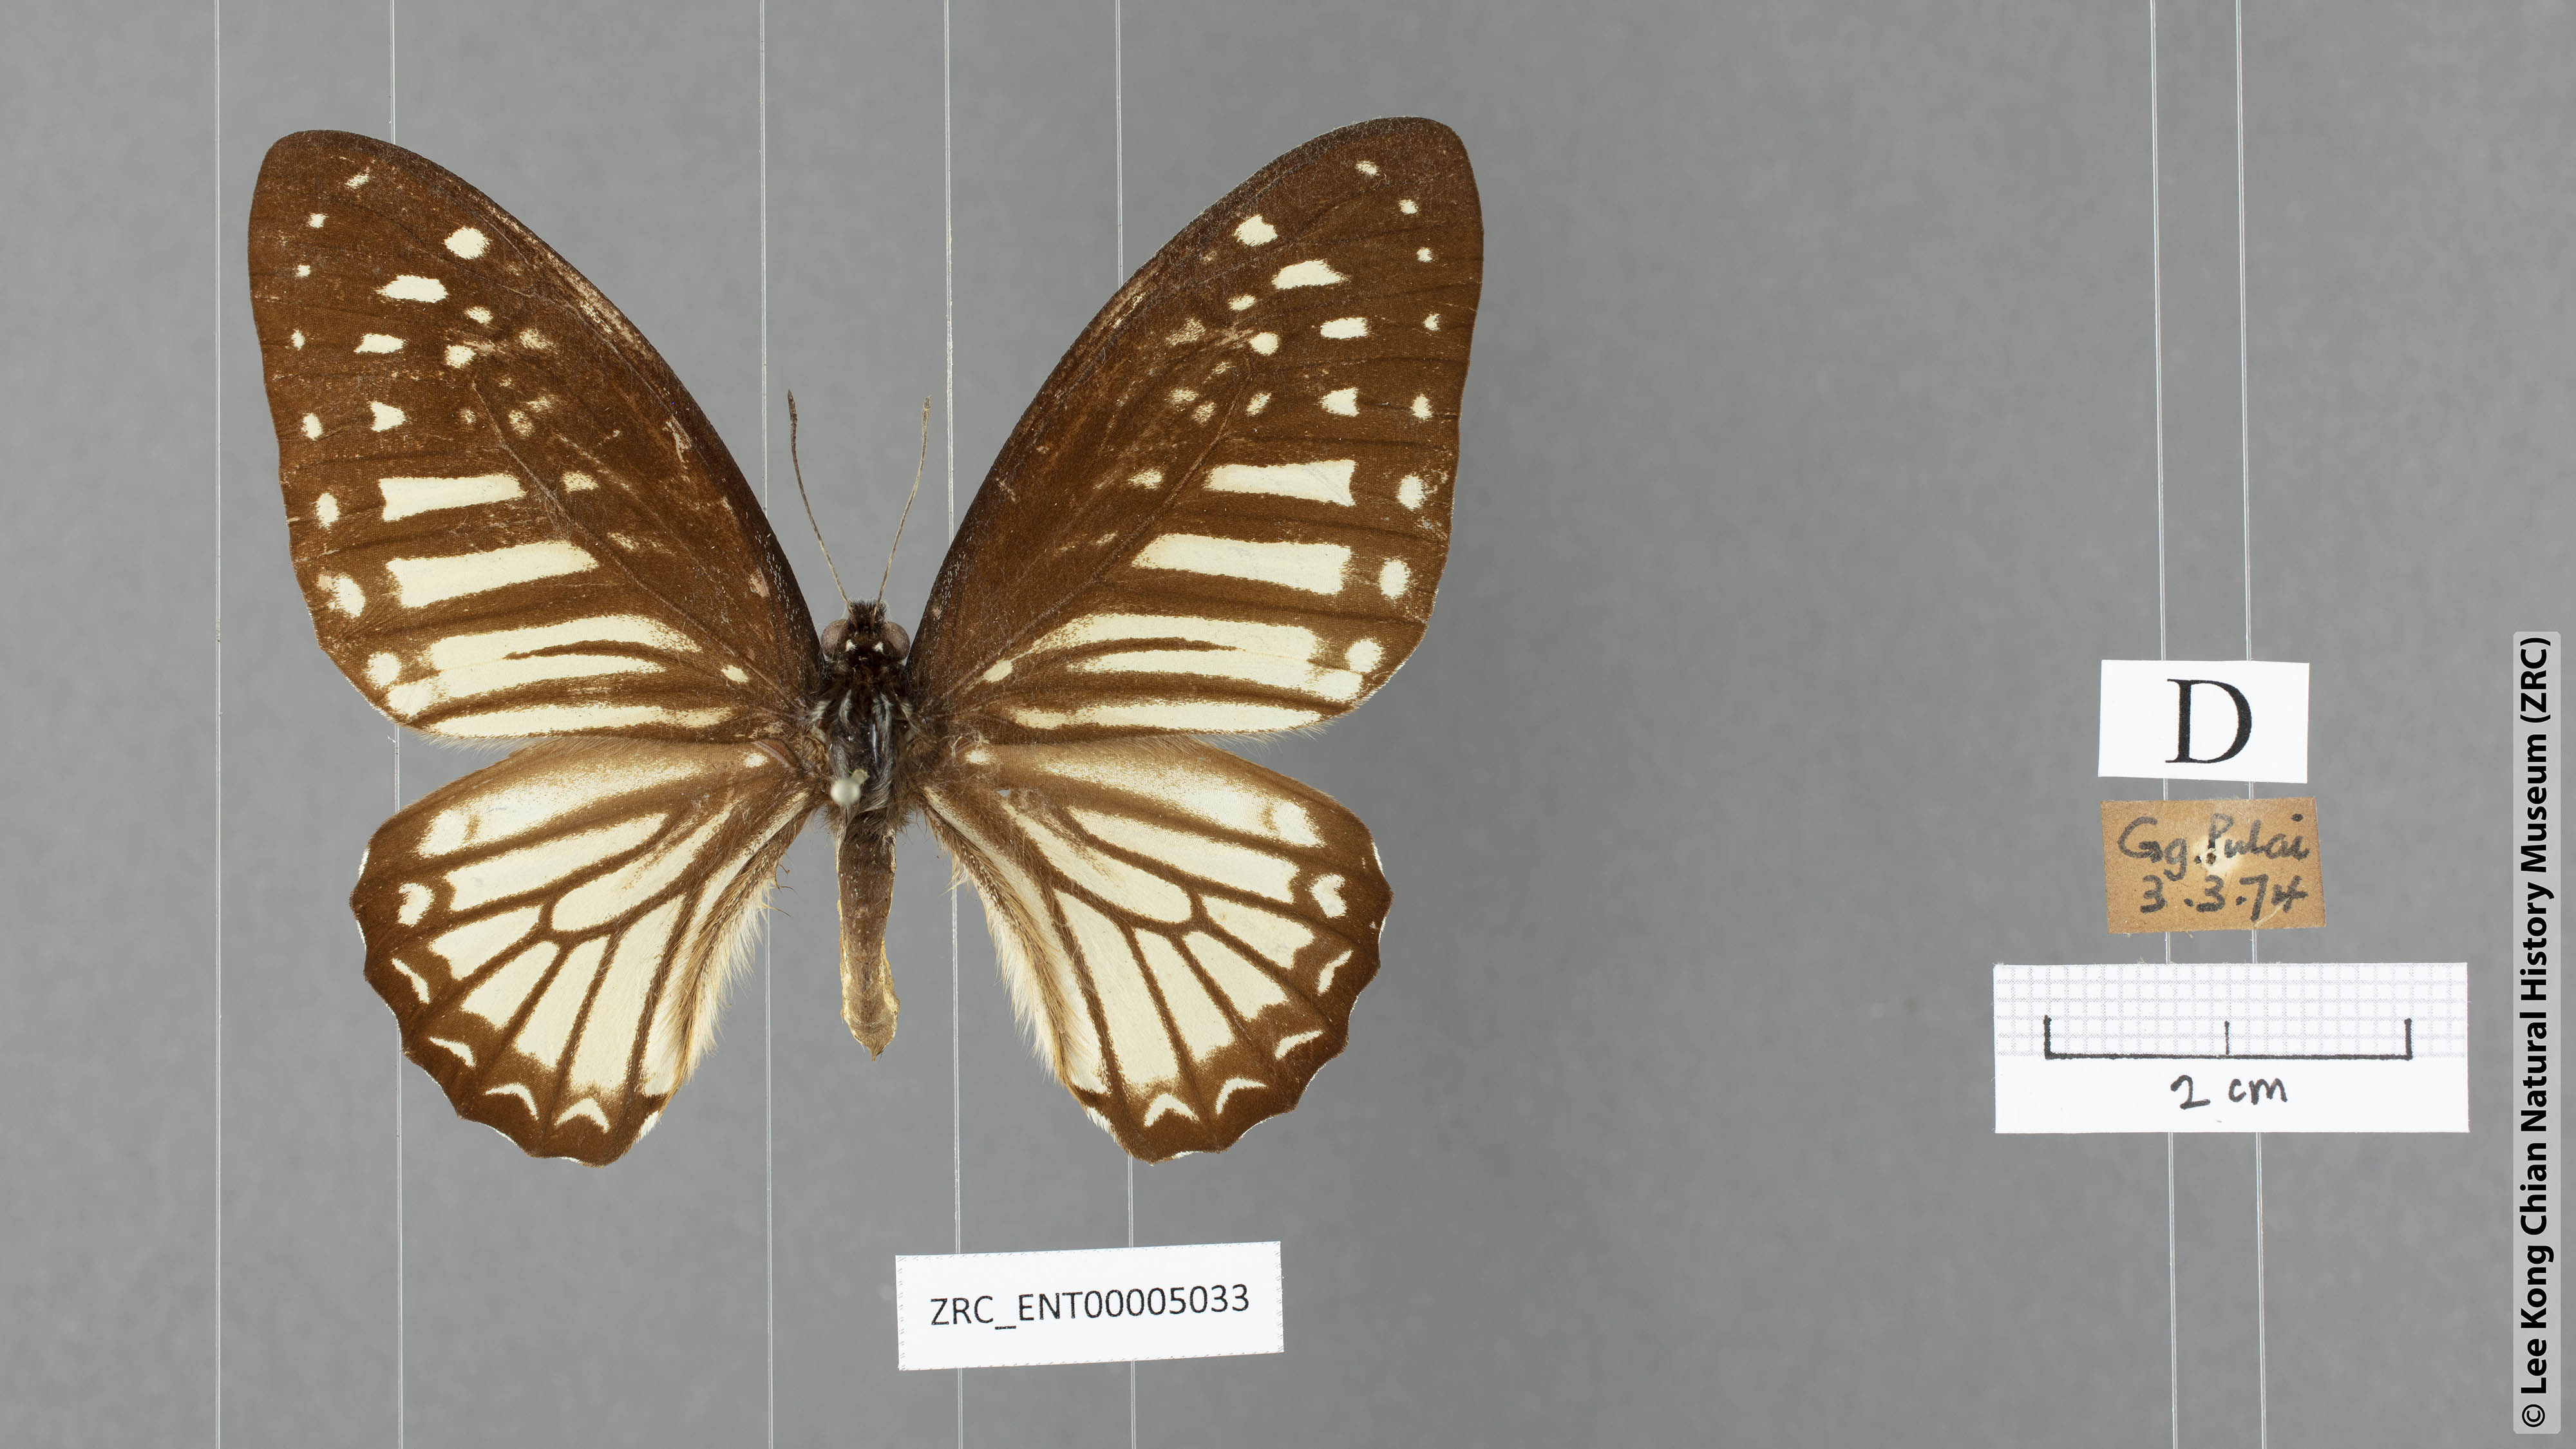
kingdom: Animalia
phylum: Arthropoda
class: Insecta
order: Lepidoptera
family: Papilionidae
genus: Graphium
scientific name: Graphium ramaceus
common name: Pendlebury's zebra
